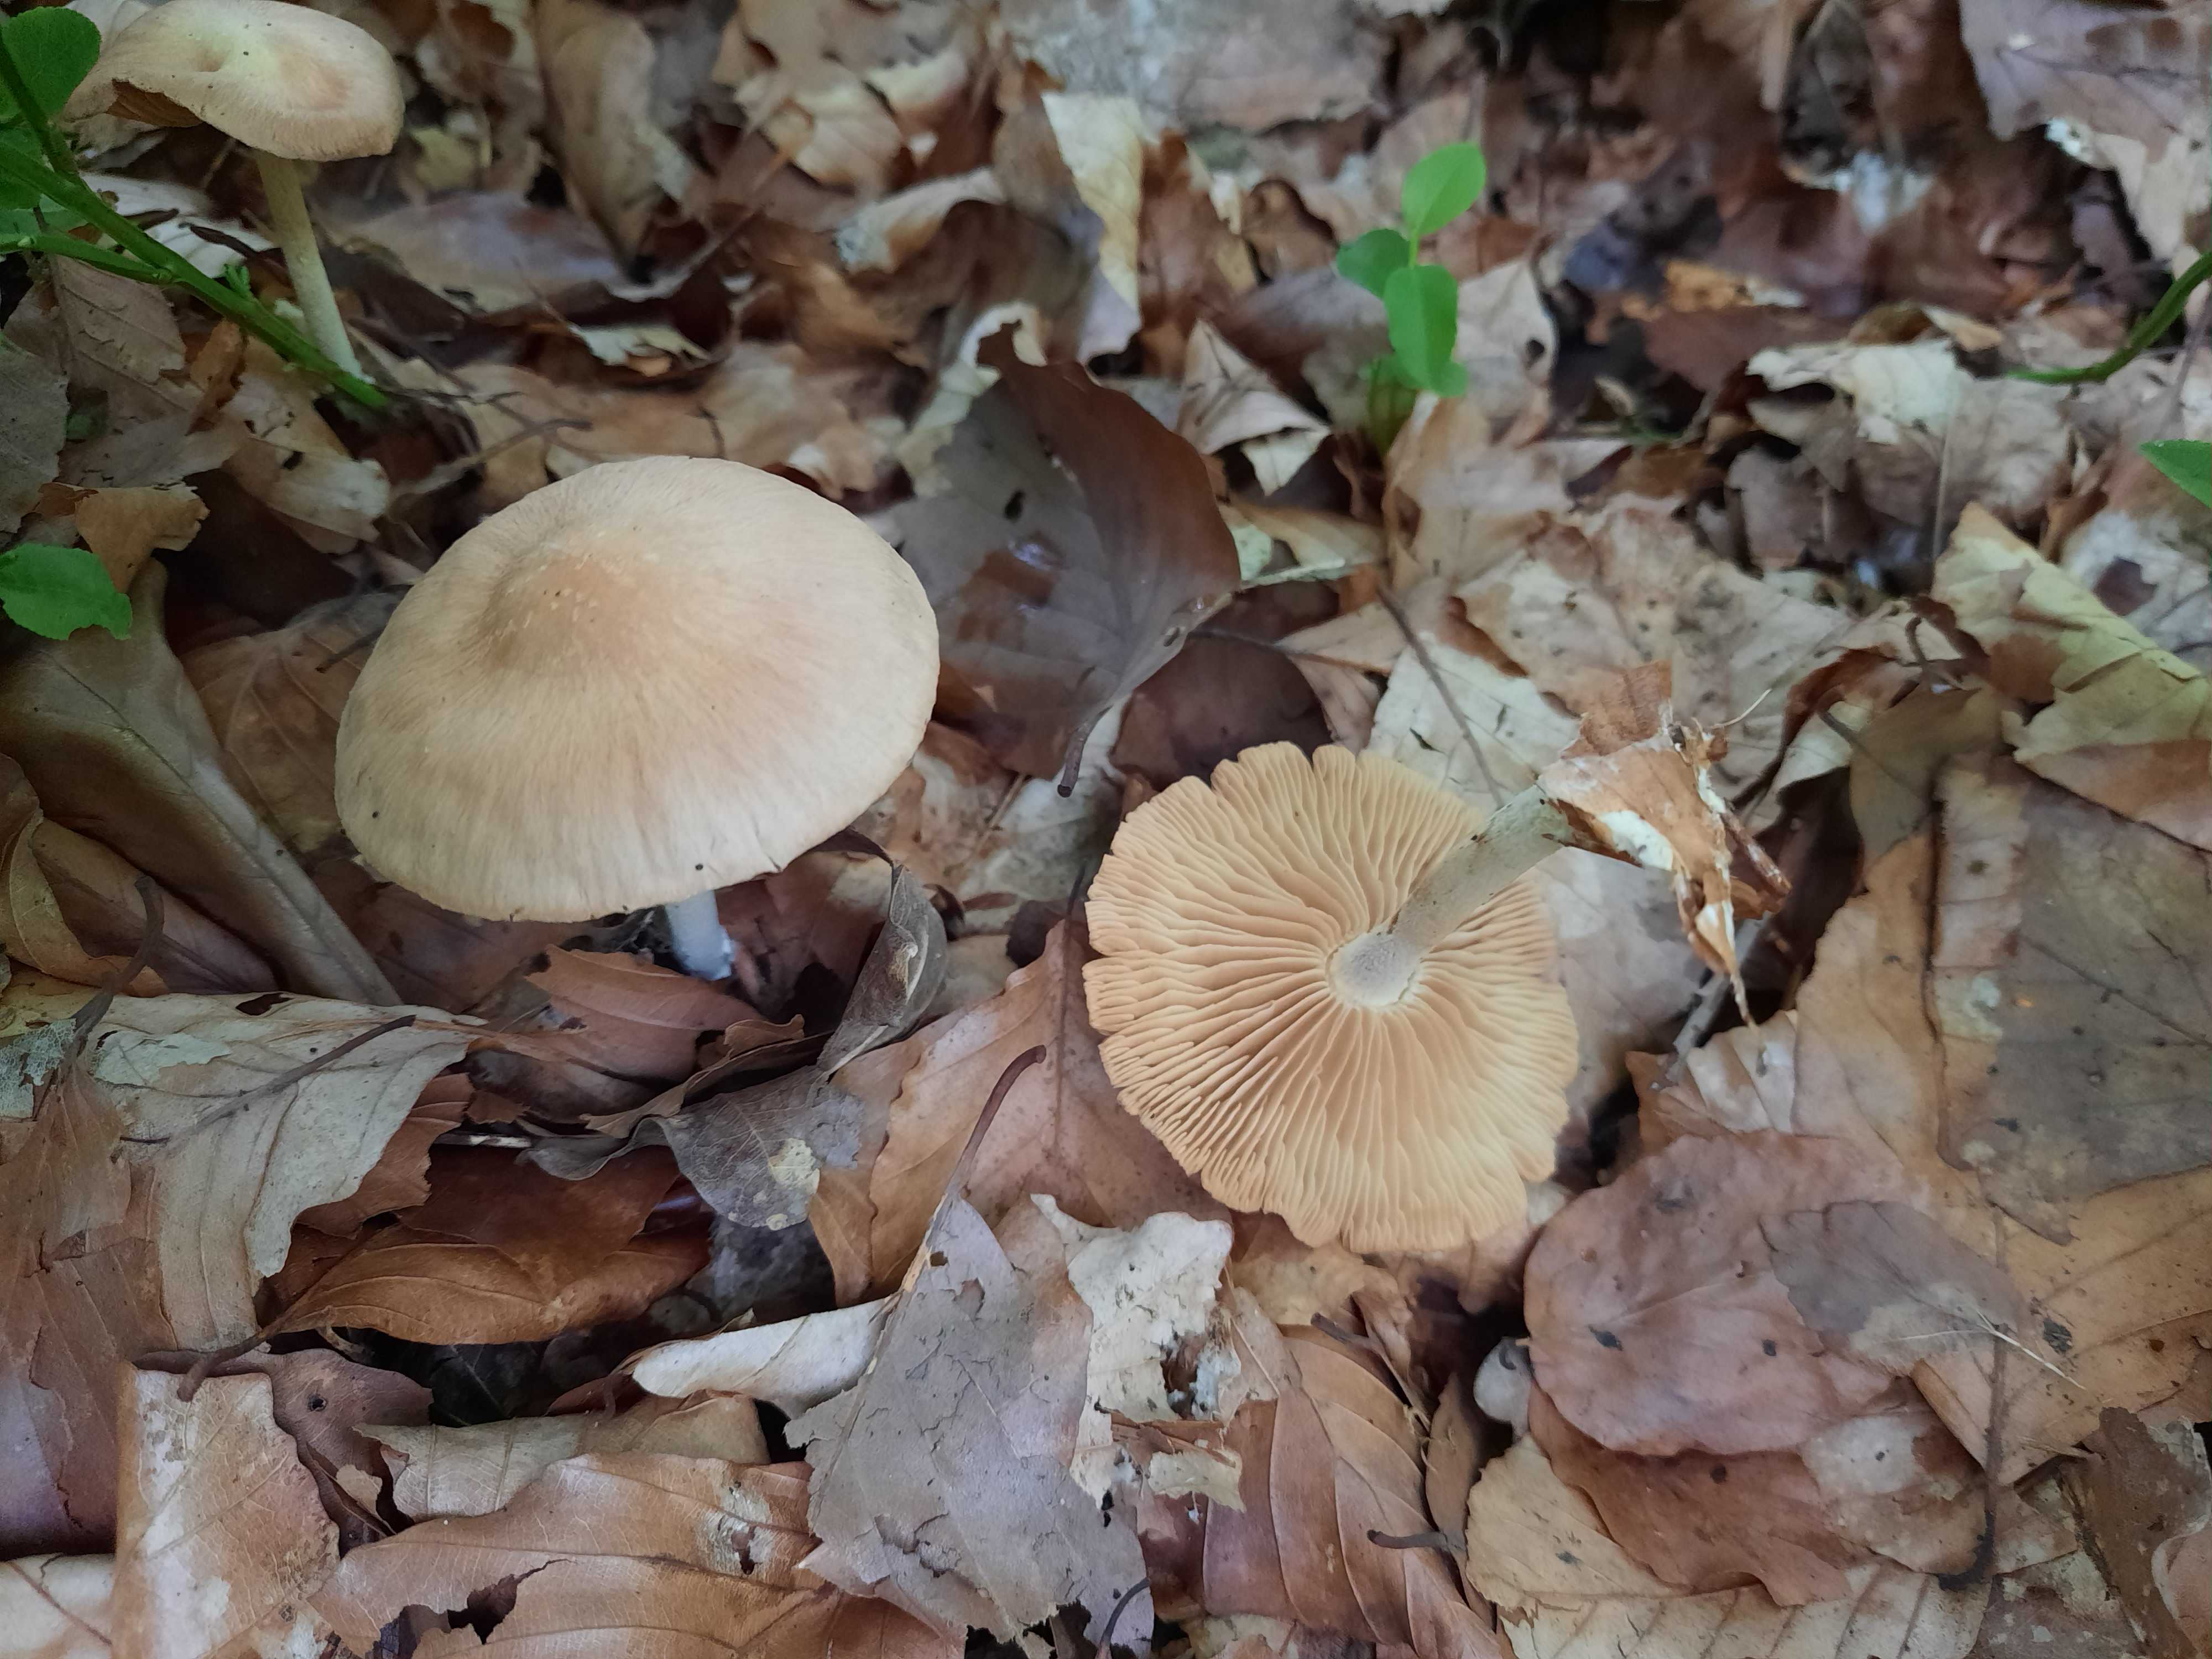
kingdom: Fungi
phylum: Basidiomycota
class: Agaricomycetes
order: Agaricales
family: Omphalotaceae
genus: Collybiopsis
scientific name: Collybiopsis peronata
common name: bestøvlet fladhat
